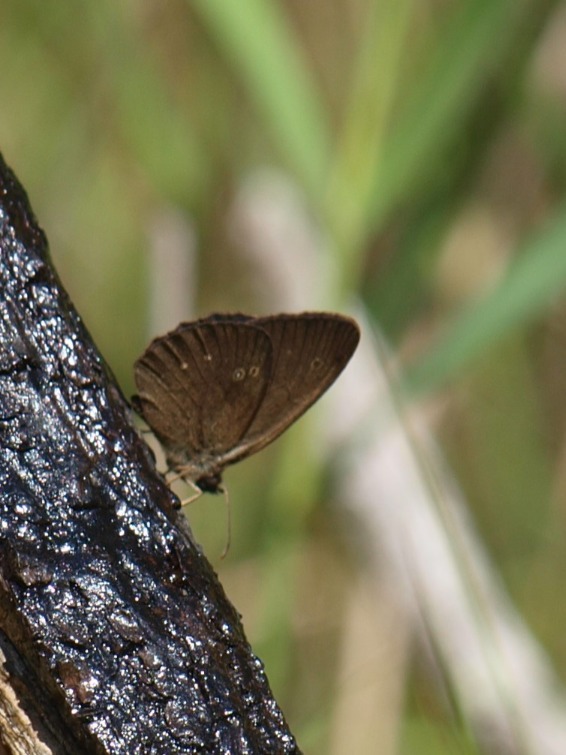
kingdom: Animalia
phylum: Arthropoda
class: Insecta
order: Lepidoptera
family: Nymphalidae
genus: Aphantopus
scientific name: Aphantopus hyperantus
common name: Engrandøje
